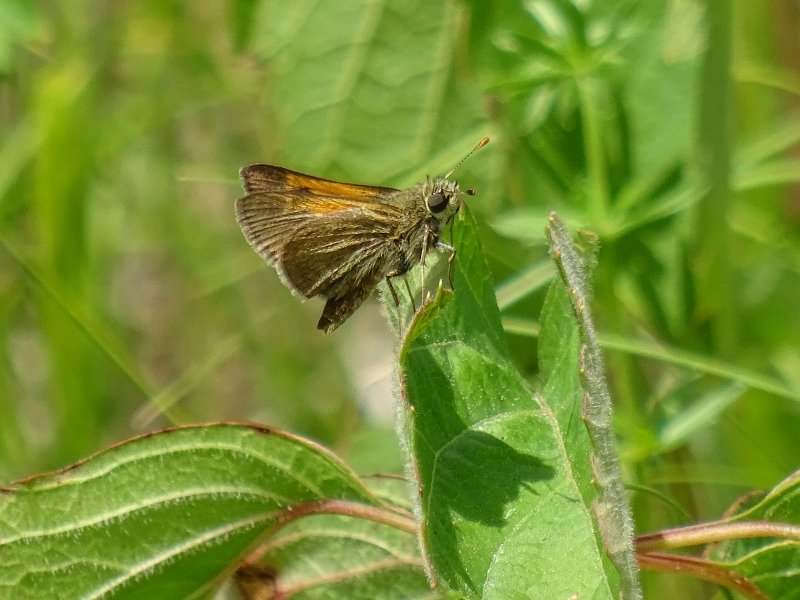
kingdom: Animalia
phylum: Arthropoda
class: Insecta
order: Lepidoptera
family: Hesperiidae
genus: Polites
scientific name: Polites themistocles
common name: Tawny-edged Skipper
